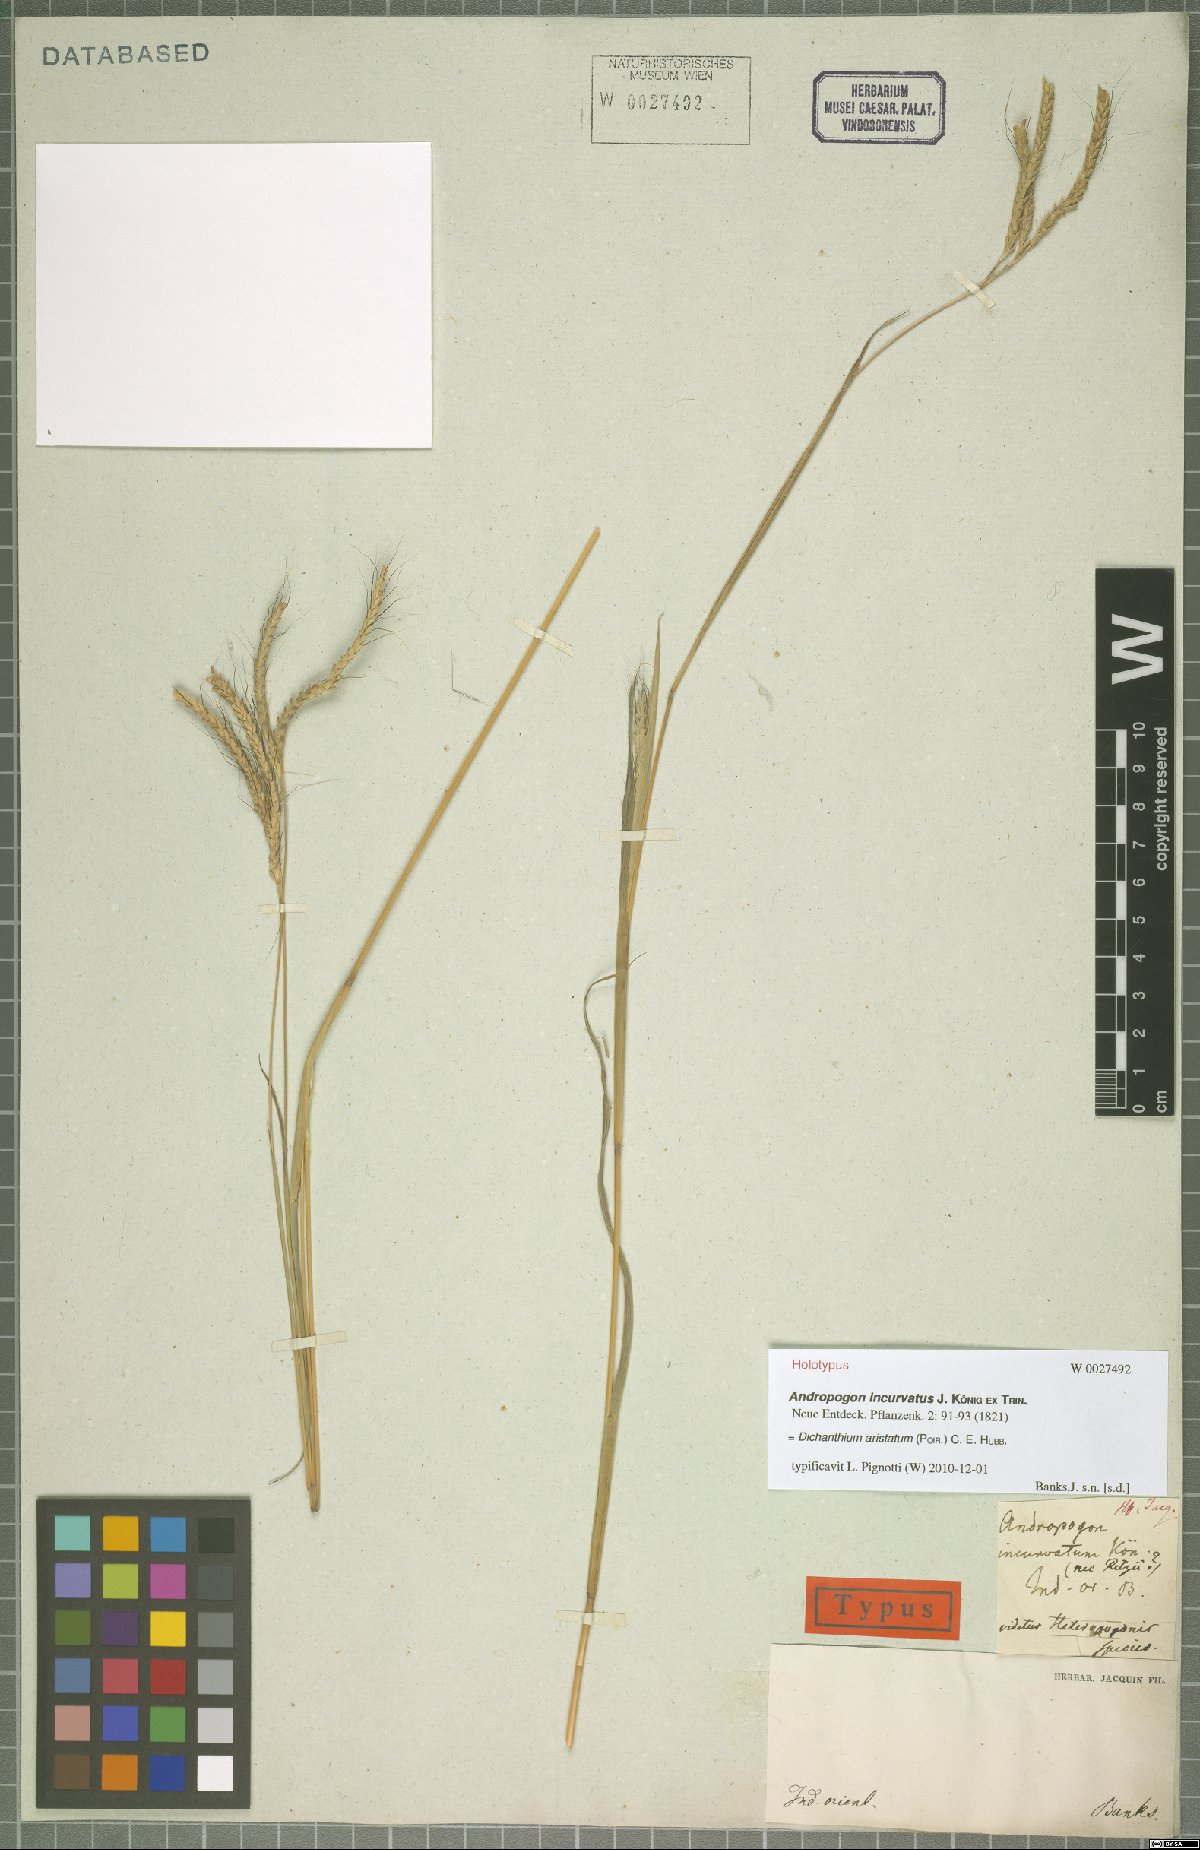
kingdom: Plantae
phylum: Tracheophyta
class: Liliopsida
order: Poales
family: Poaceae
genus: Dichanthium
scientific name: Dichanthium aristatum
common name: Angleton bluestem
